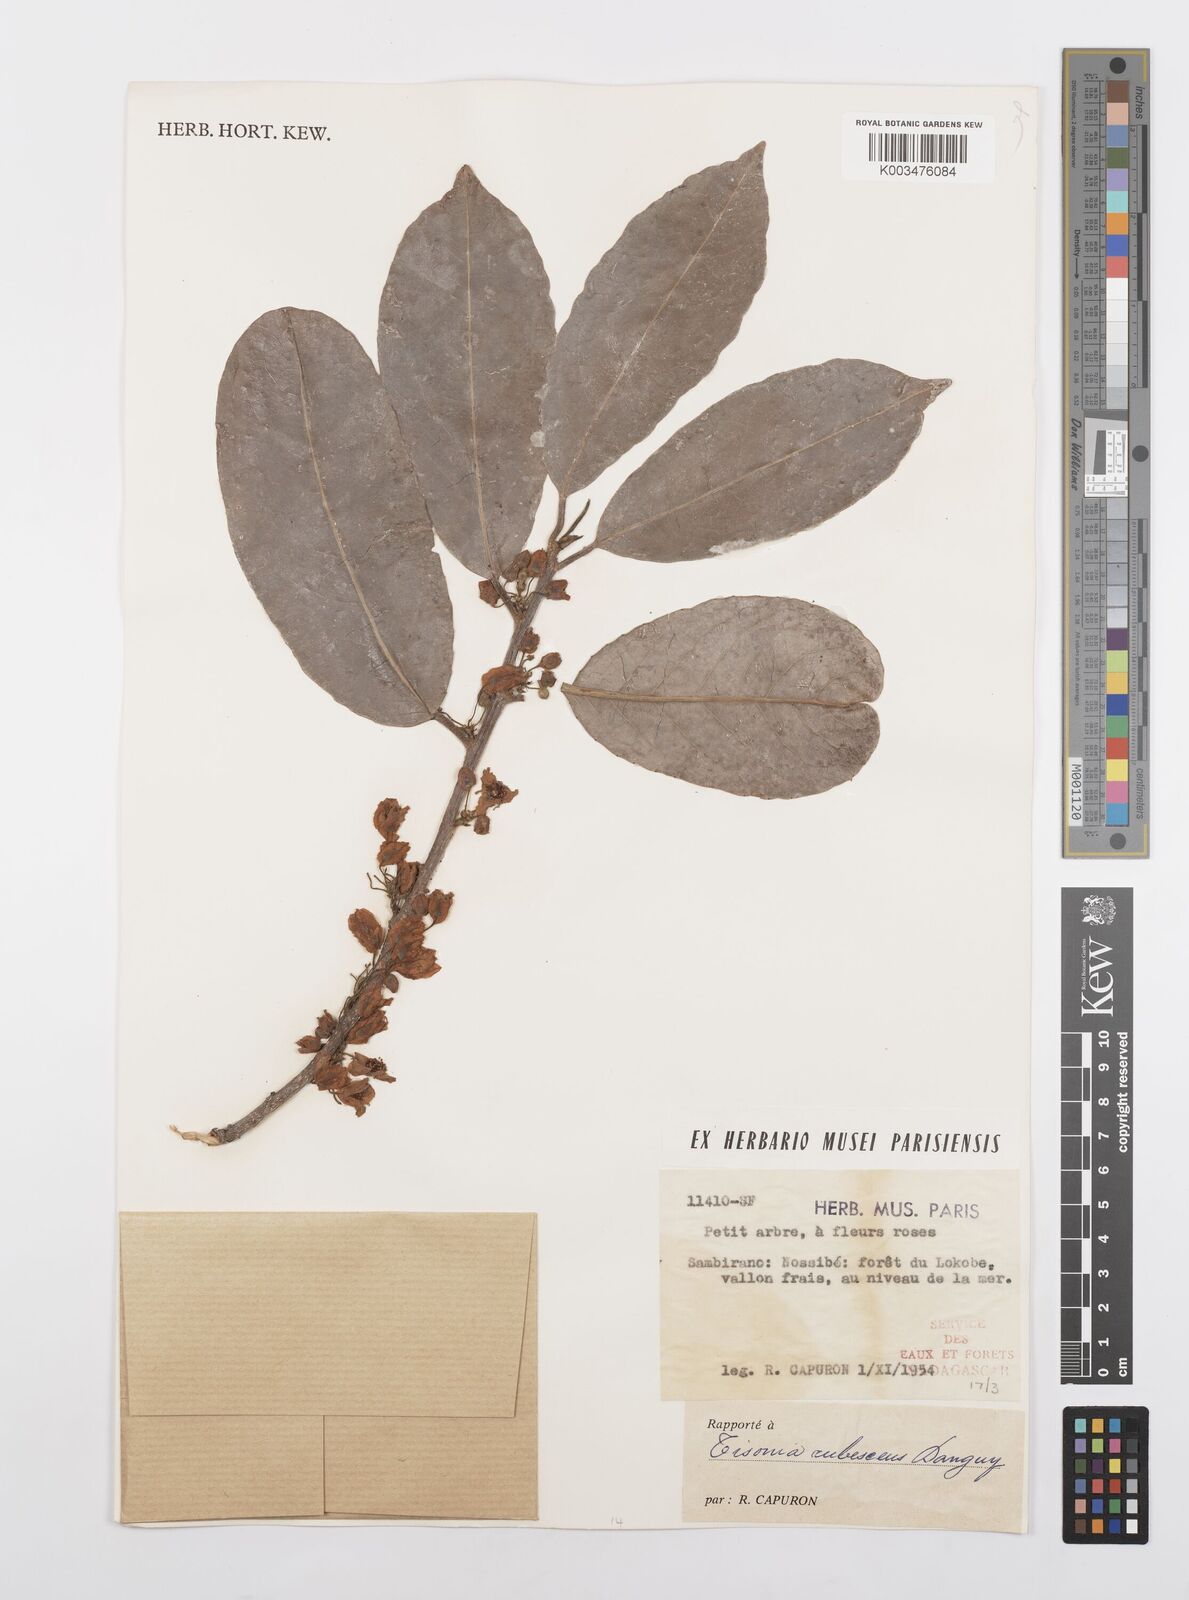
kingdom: Plantae
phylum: Tracheophyta
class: Magnoliopsida
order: Malpighiales
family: Salicaceae
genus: Tisonia
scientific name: Tisonia rubescens
